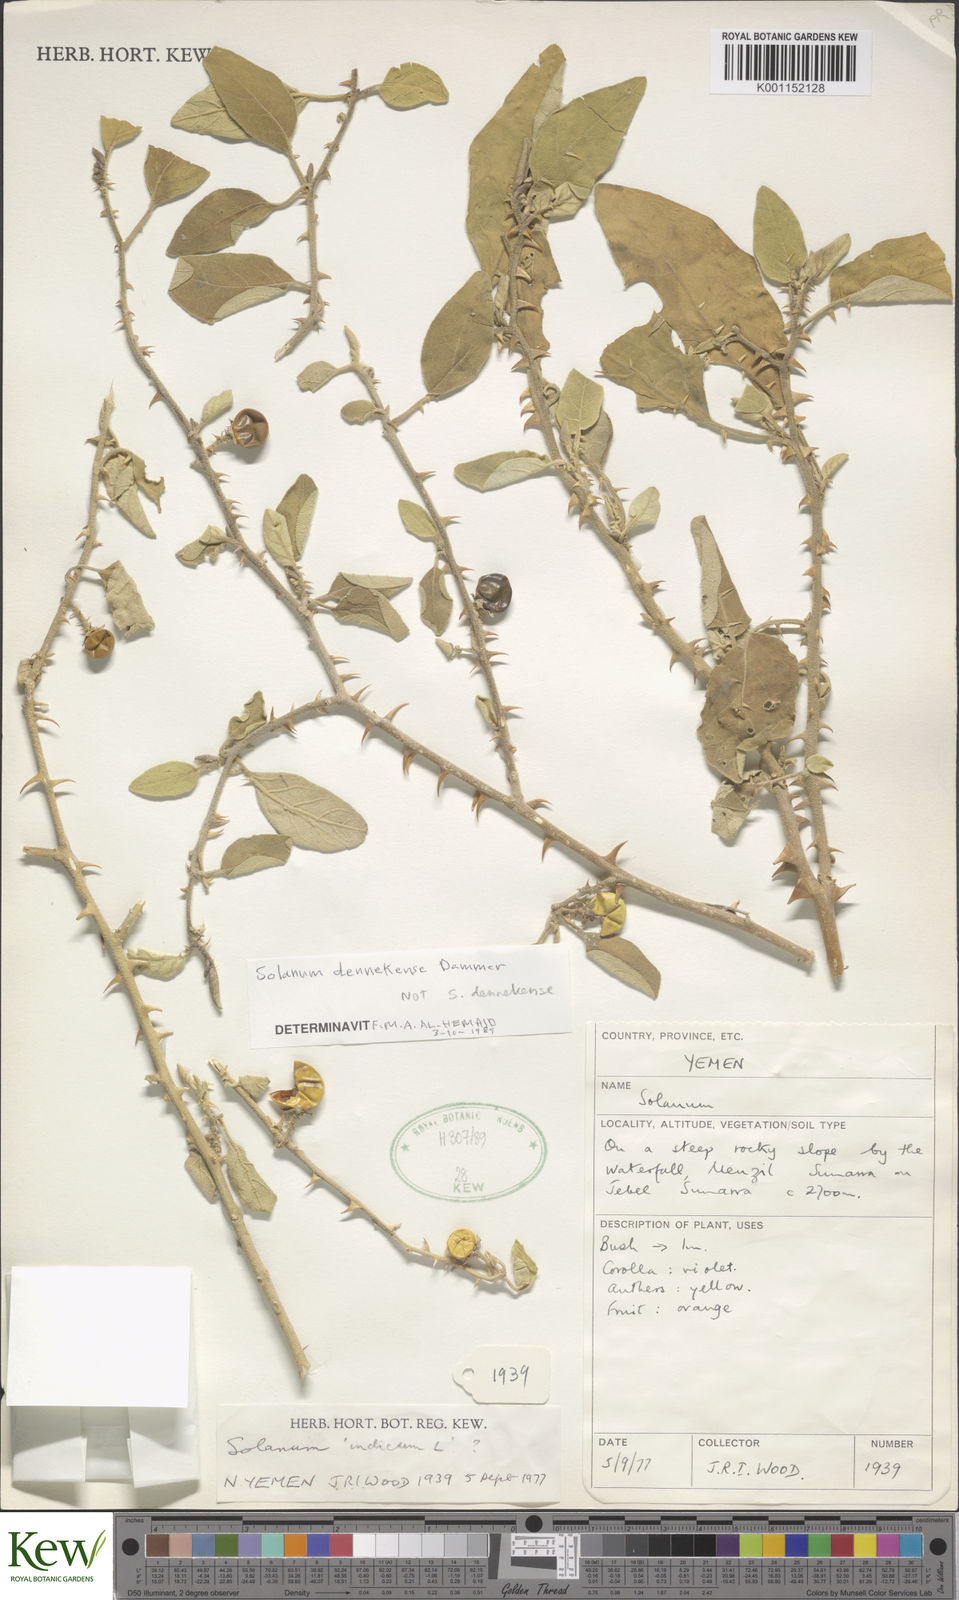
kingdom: Plantae
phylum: Tracheophyta
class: Magnoliopsida
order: Solanales
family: Solanaceae
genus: Solanum
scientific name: Solanum dennekense
